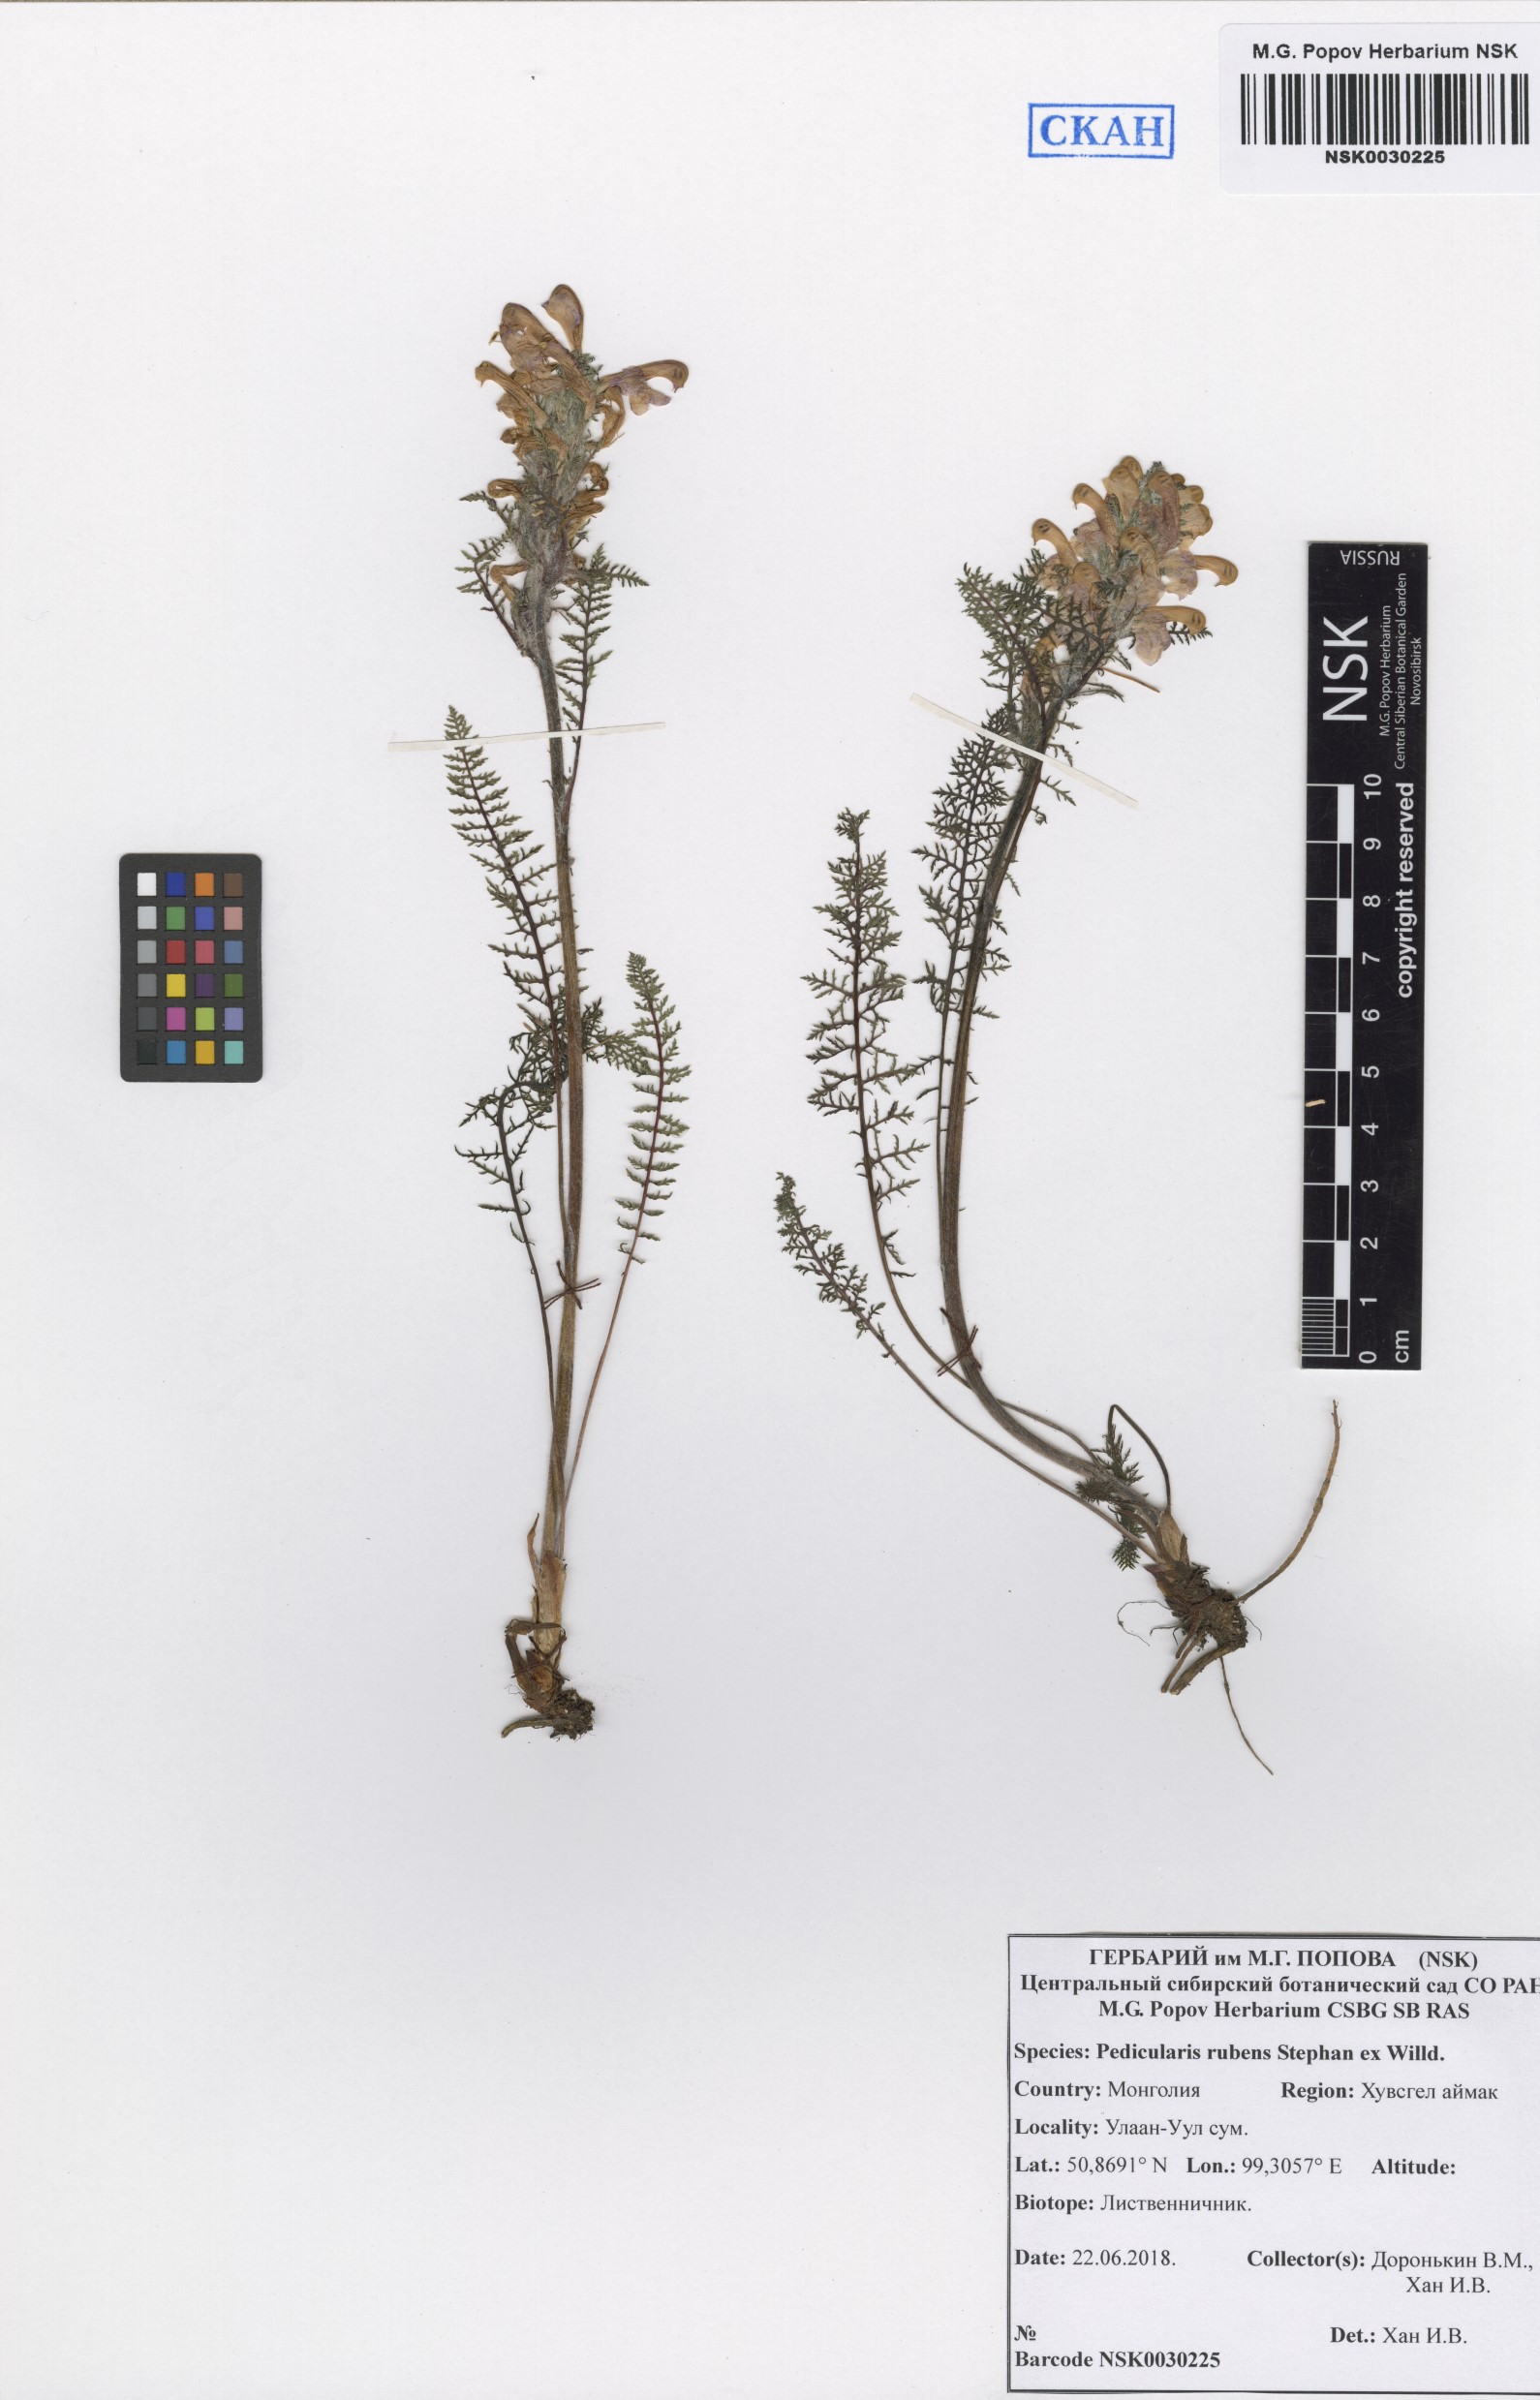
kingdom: Plantae
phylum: Tracheophyta
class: Magnoliopsida
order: Lamiales
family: Orobanchaceae
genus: Pedicularis
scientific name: Pedicularis rubens
